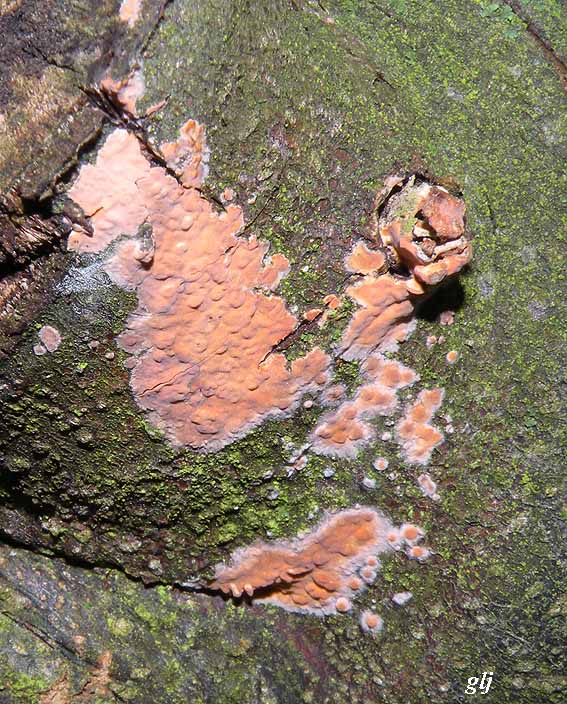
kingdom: Fungi
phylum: Basidiomycota
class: Agaricomycetes
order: Russulales
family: Peniophoraceae
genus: Peniophora
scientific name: Peniophora incarnata
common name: laksefarvet voksskind
